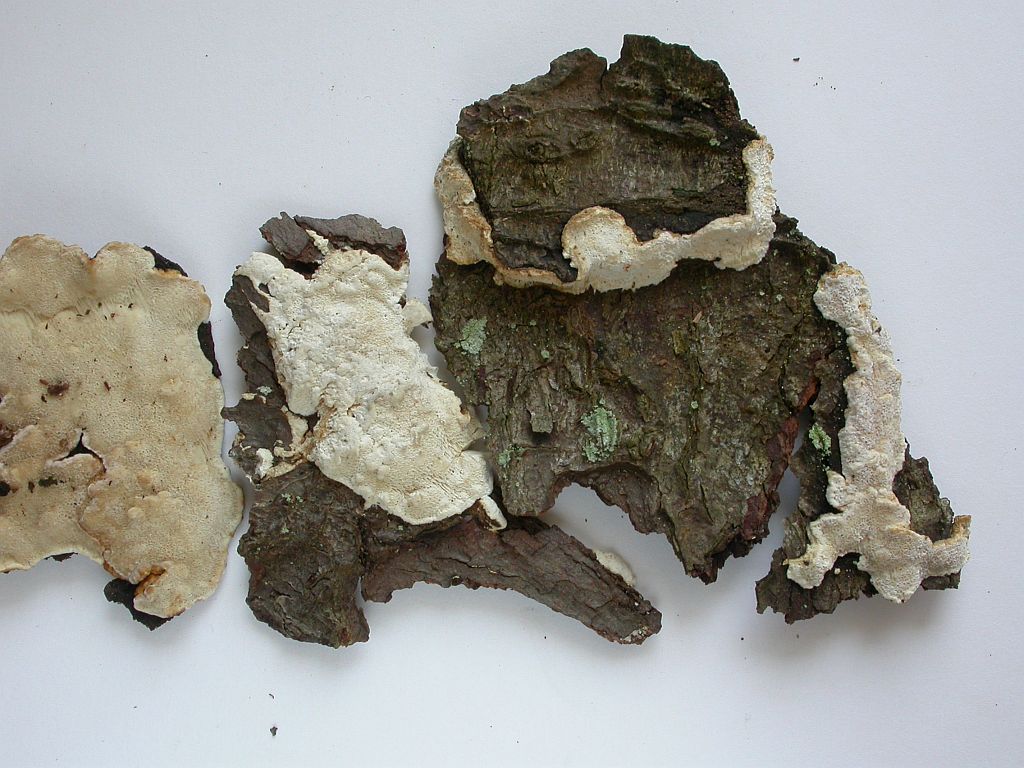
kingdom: Fungi
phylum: Basidiomycota
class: Agaricomycetes
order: Polyporales
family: Fomitopsidaceae
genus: Neoantrodia
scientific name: Neoantrodia serialis
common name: række-sejporesvamp
